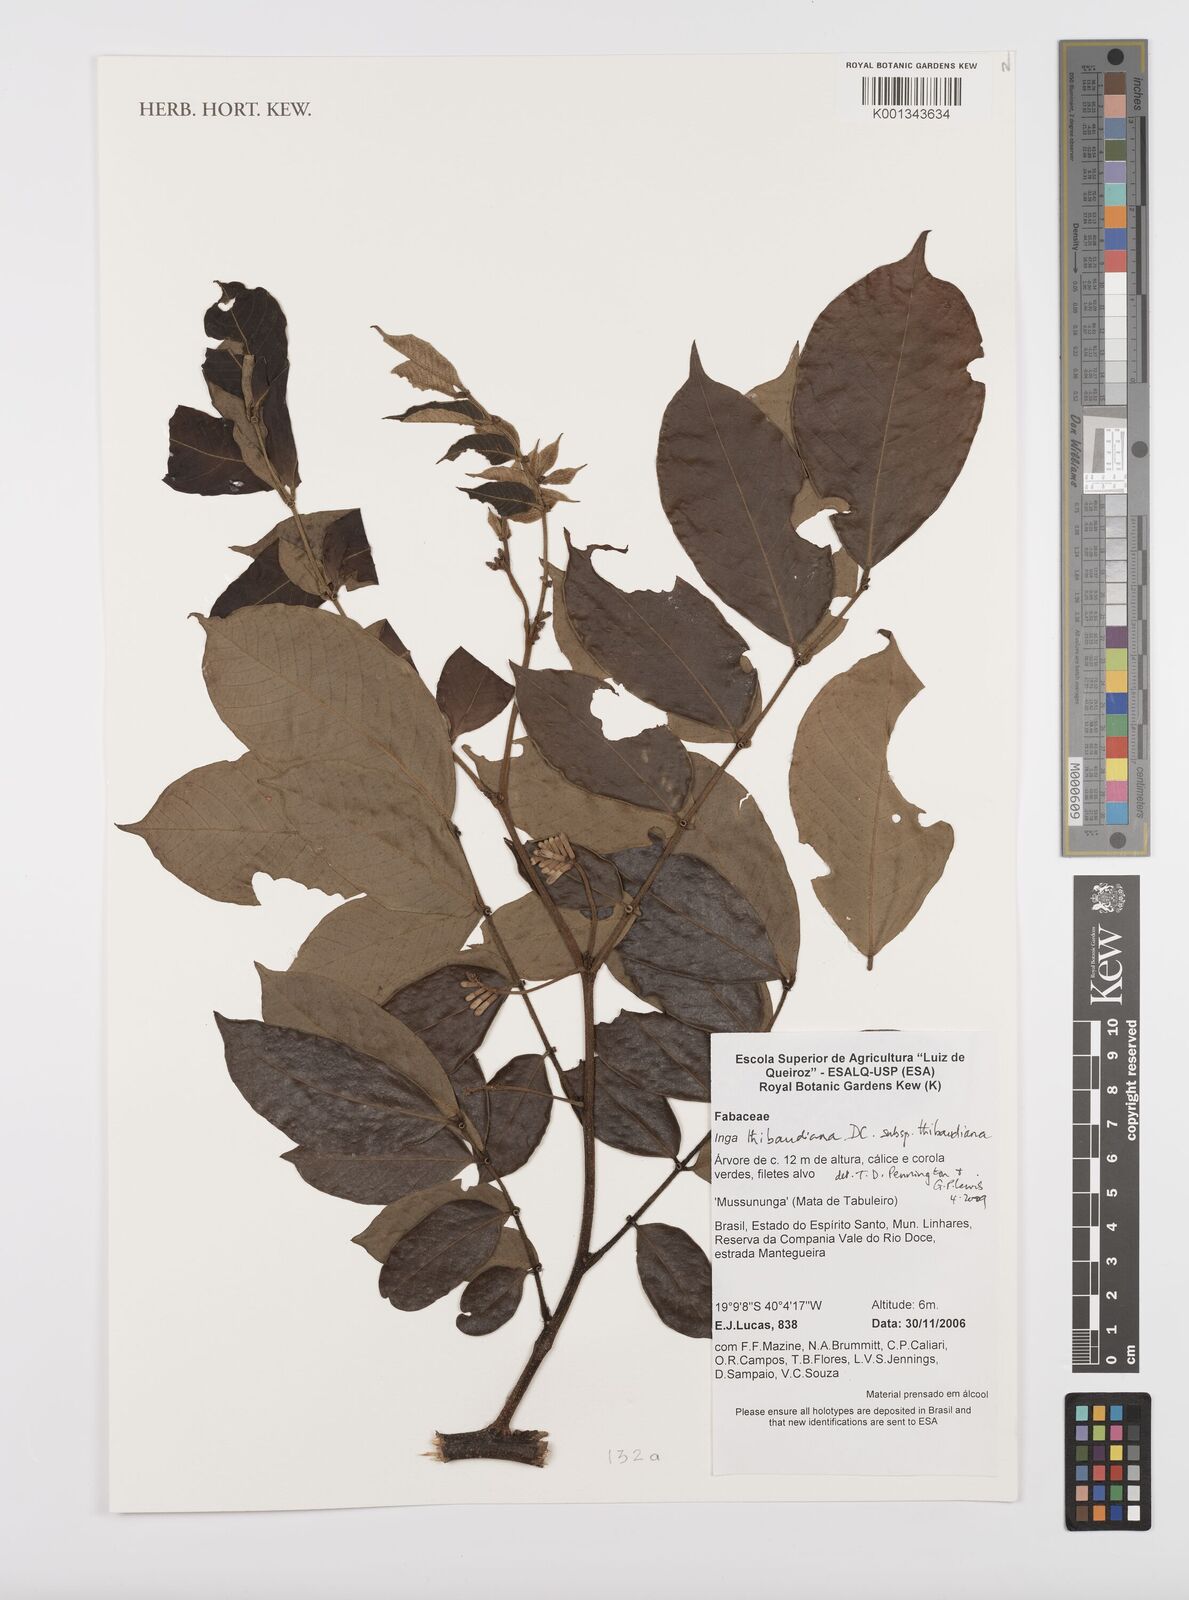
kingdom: Plantae
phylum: Tracheophyta
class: Magnoliopsida
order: Fabales
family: Fabaceae
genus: Inga
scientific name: Inga thibaudiana
